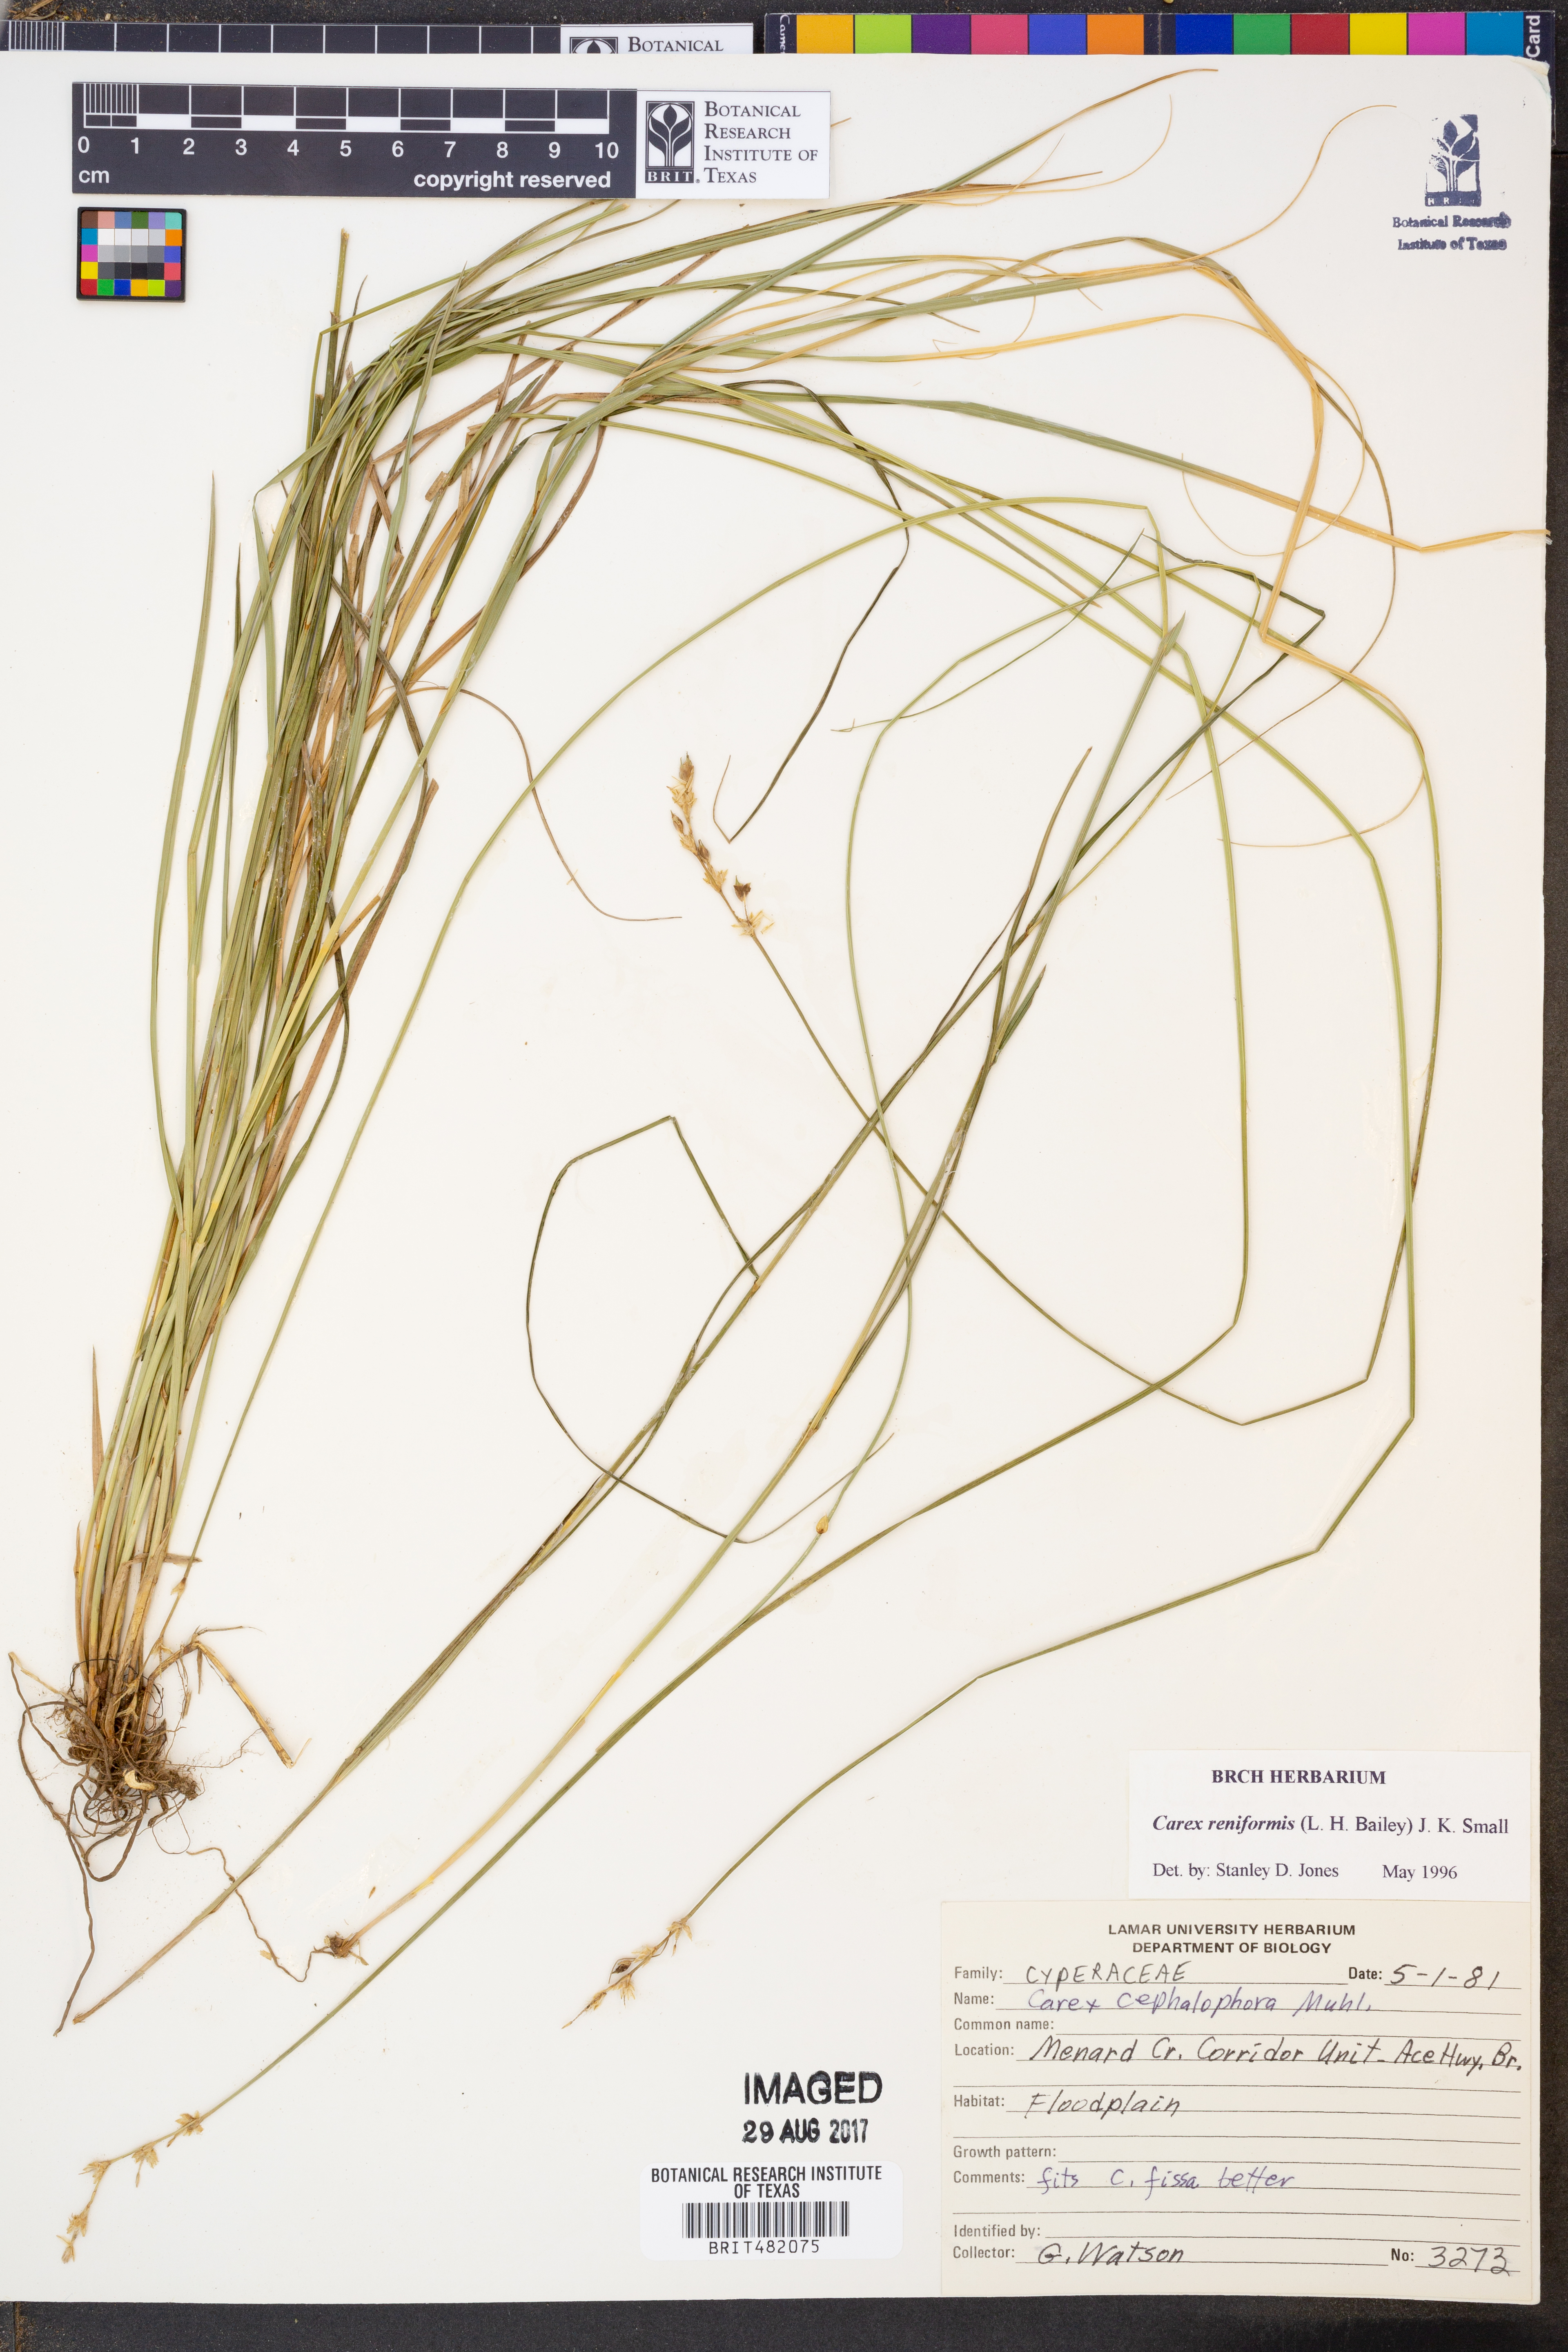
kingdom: Plantae
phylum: Tracheophyta
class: Liliopsida
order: Poales
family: Cyperaceae
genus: Carex
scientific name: Carex reniformis
